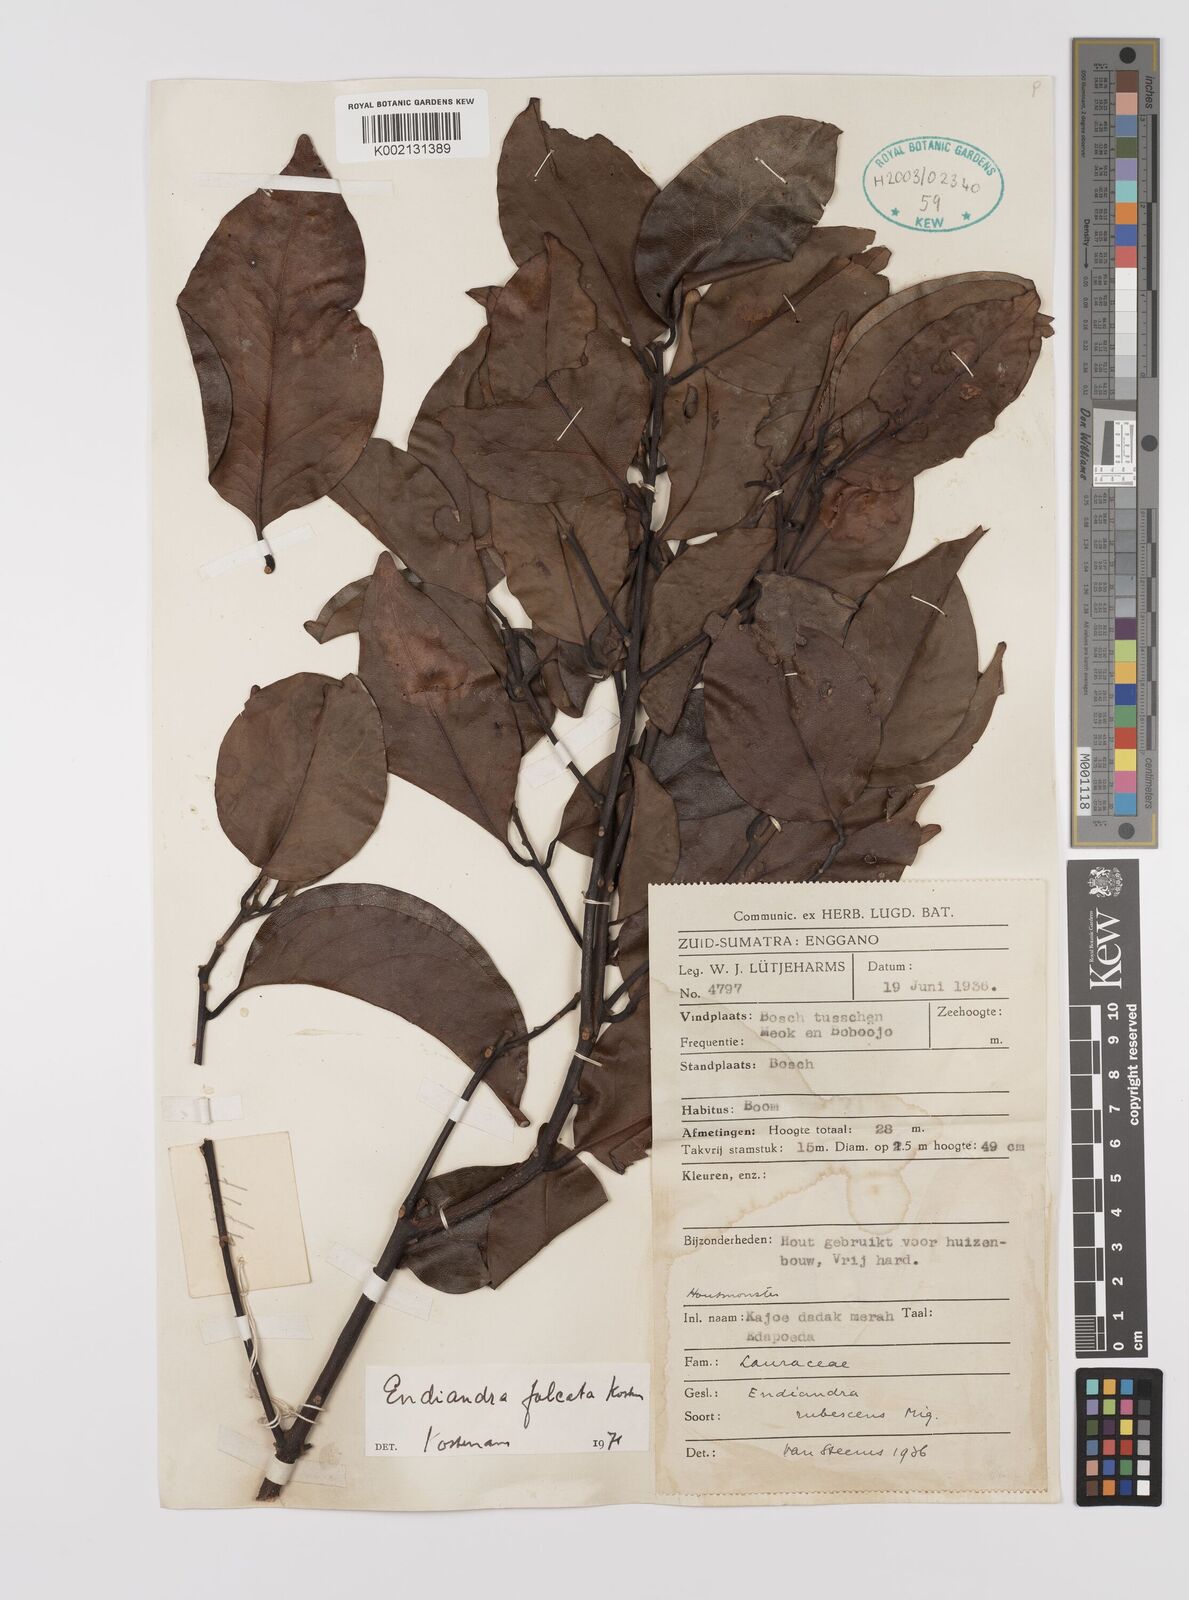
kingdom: Plantae
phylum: Tracheophyta
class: Magnoliopsida
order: Laurales
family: Lauraceae
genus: Endiandra
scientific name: Endiandra
